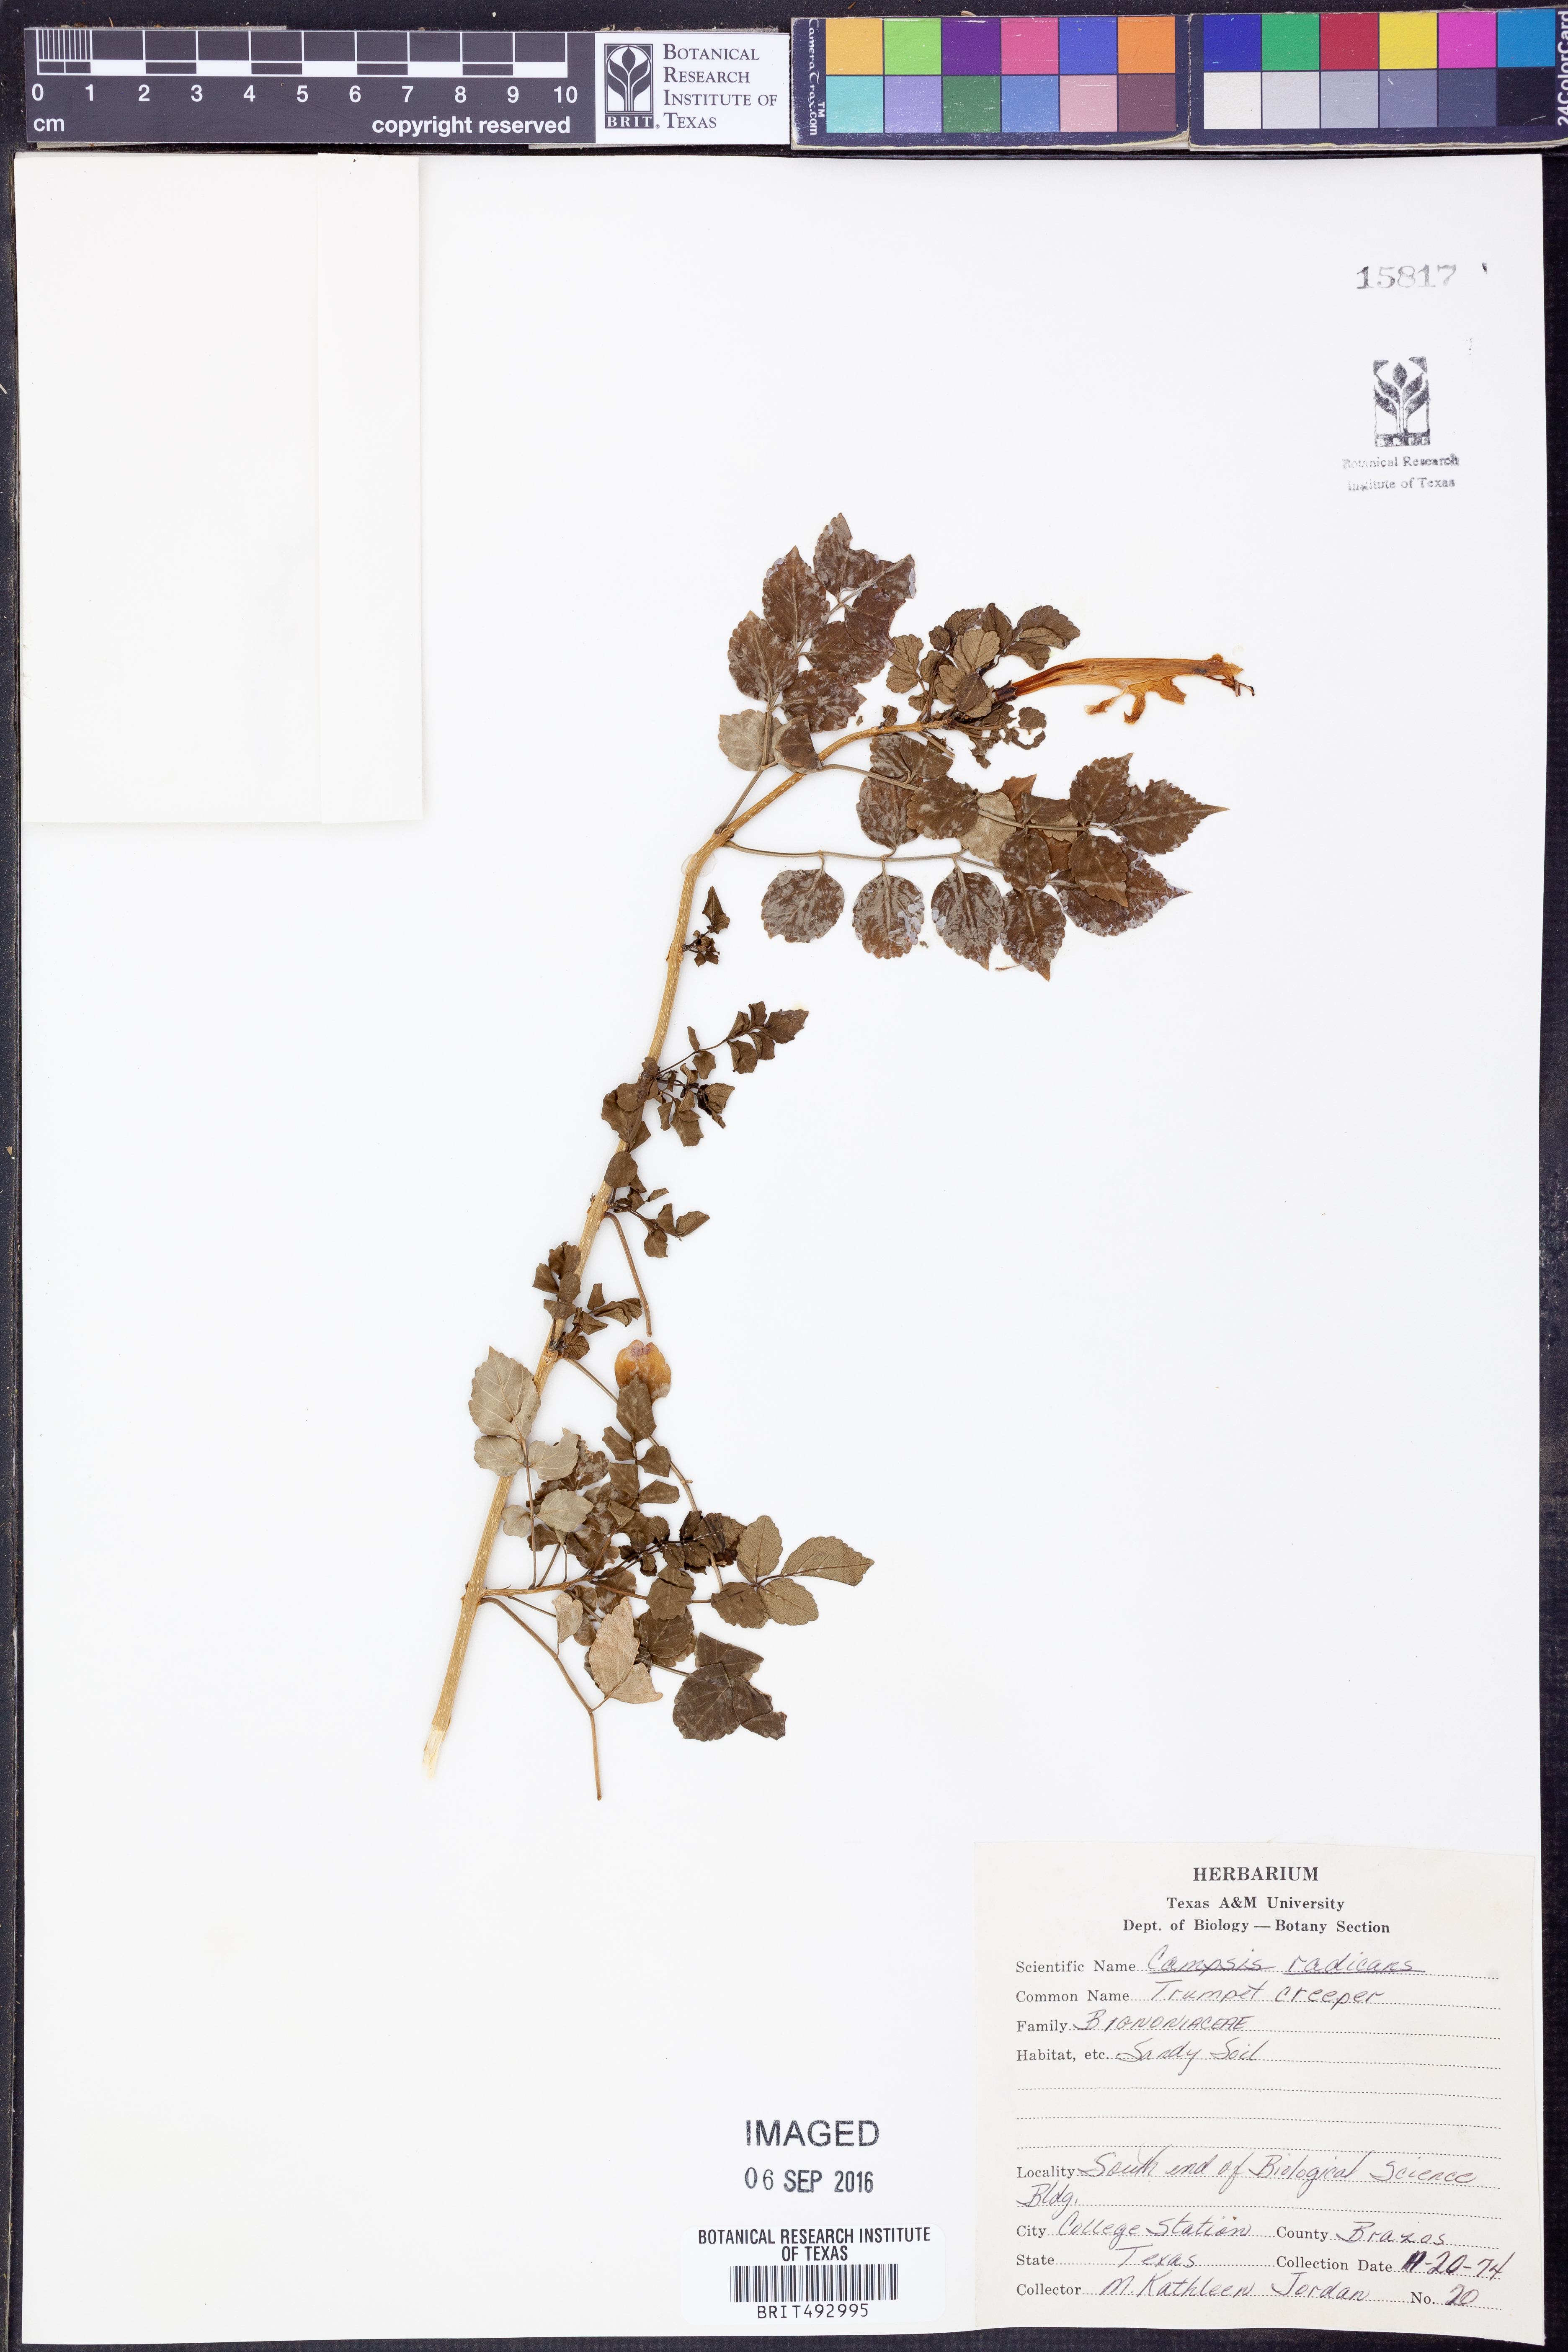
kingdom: Plantae
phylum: Tracheophyta
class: Magnoliopsida
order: Lamiales
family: Bignoniaceae
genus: Campsis
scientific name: Campsis radicans
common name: Trumpet-creeper
